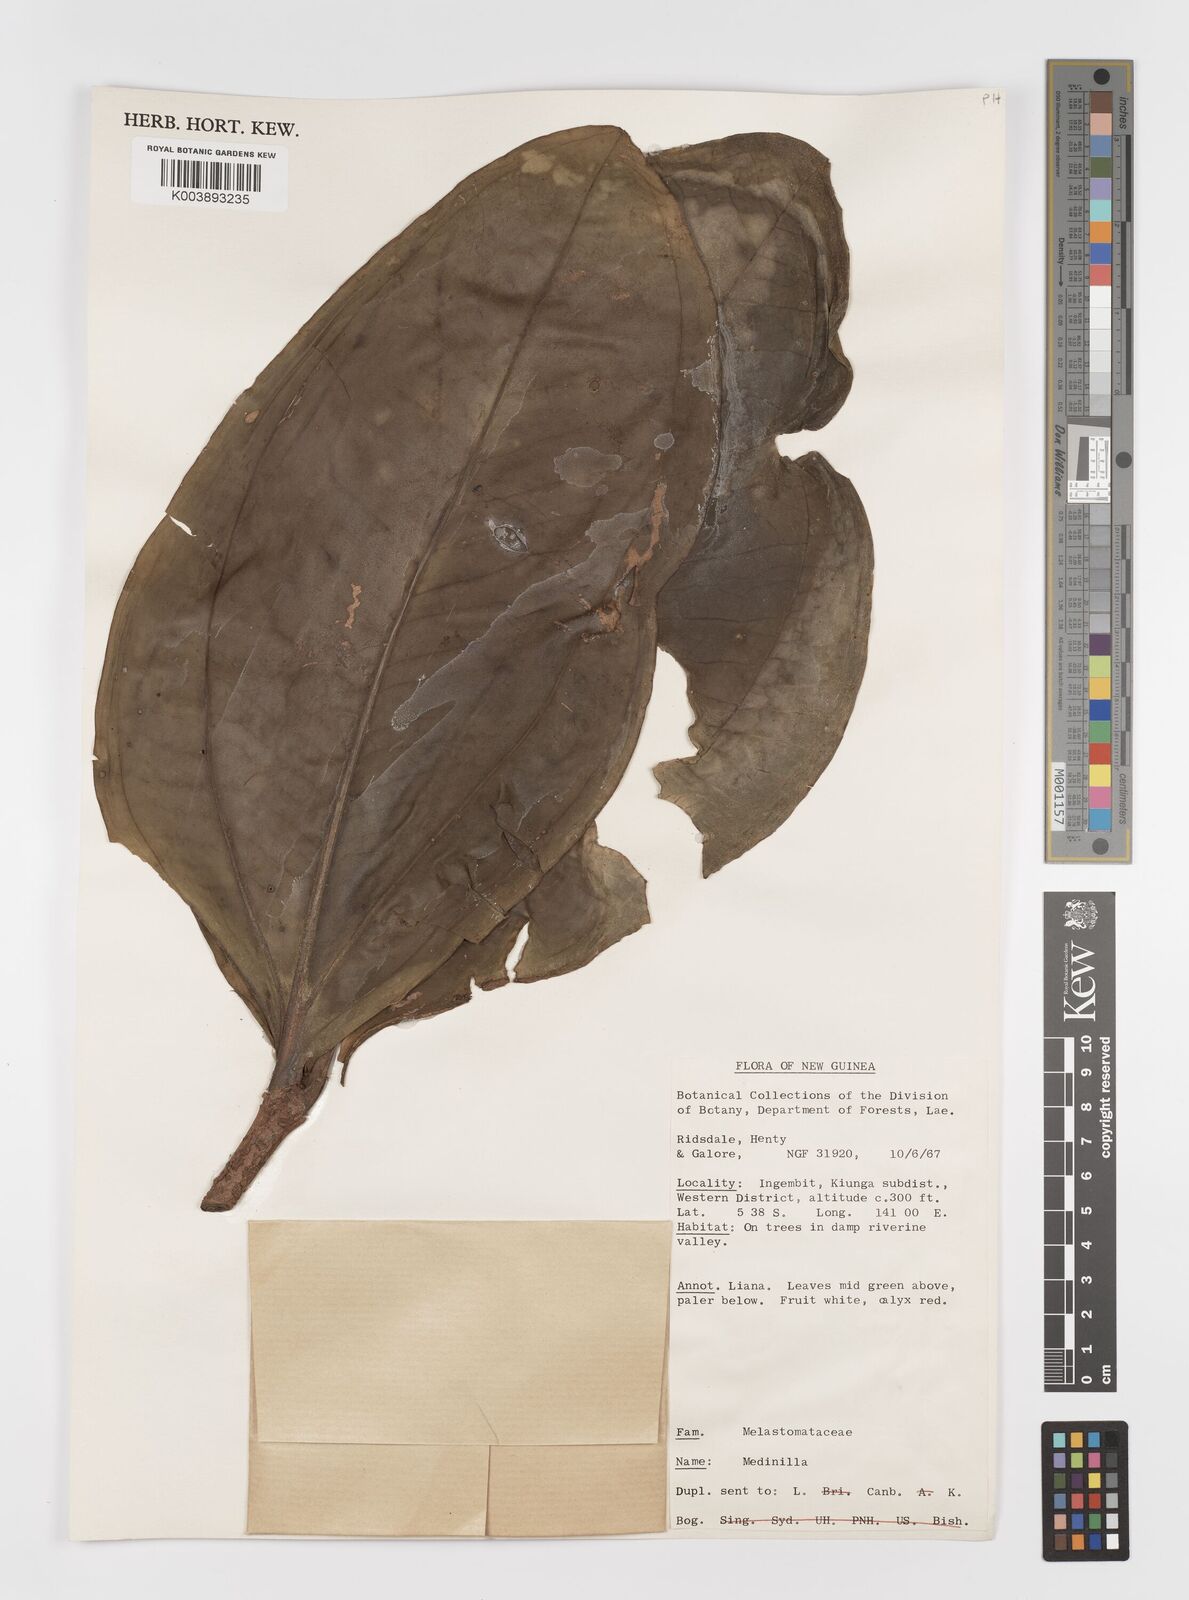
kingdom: Plantae
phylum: Tracheophyta
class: Magnoliopsida
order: Myrtales
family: Melastomataceae
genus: Medinilla
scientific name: Medinilla
